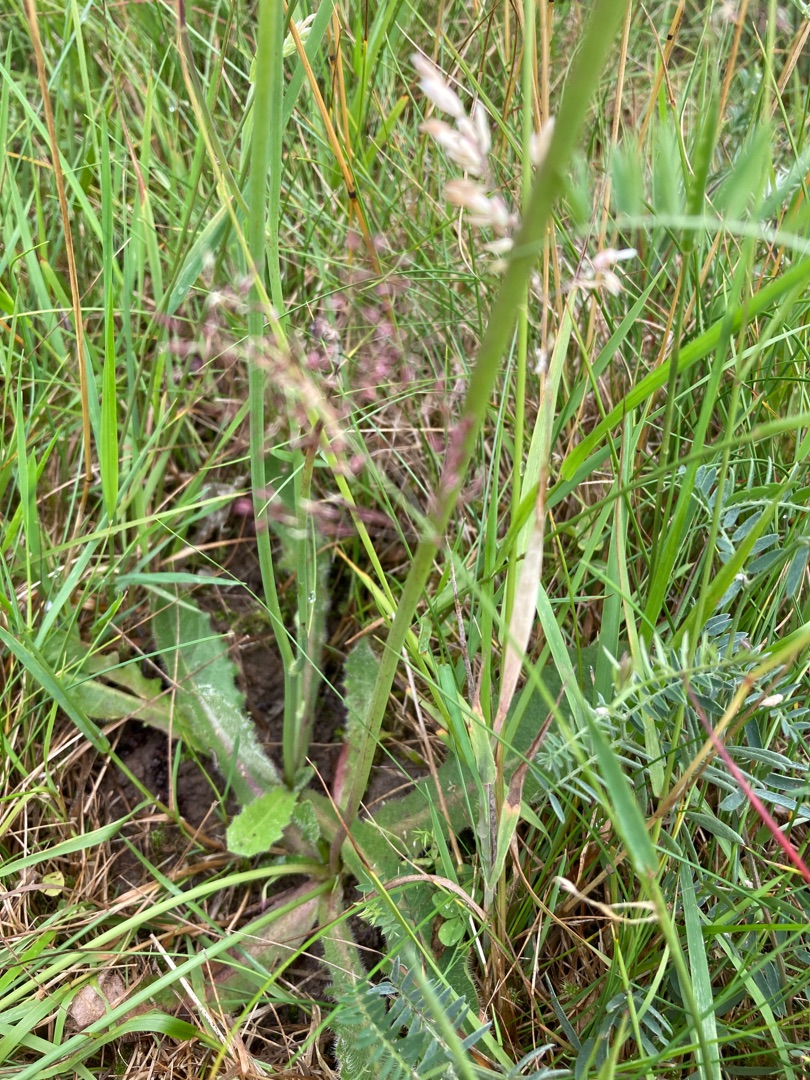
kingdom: Plantae
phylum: Tracheophyta
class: Magnoliopsida
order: Asterales
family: Asteraceae
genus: Hypochaeris
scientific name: Hypochaeris radicata
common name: Almindelig kongepen
